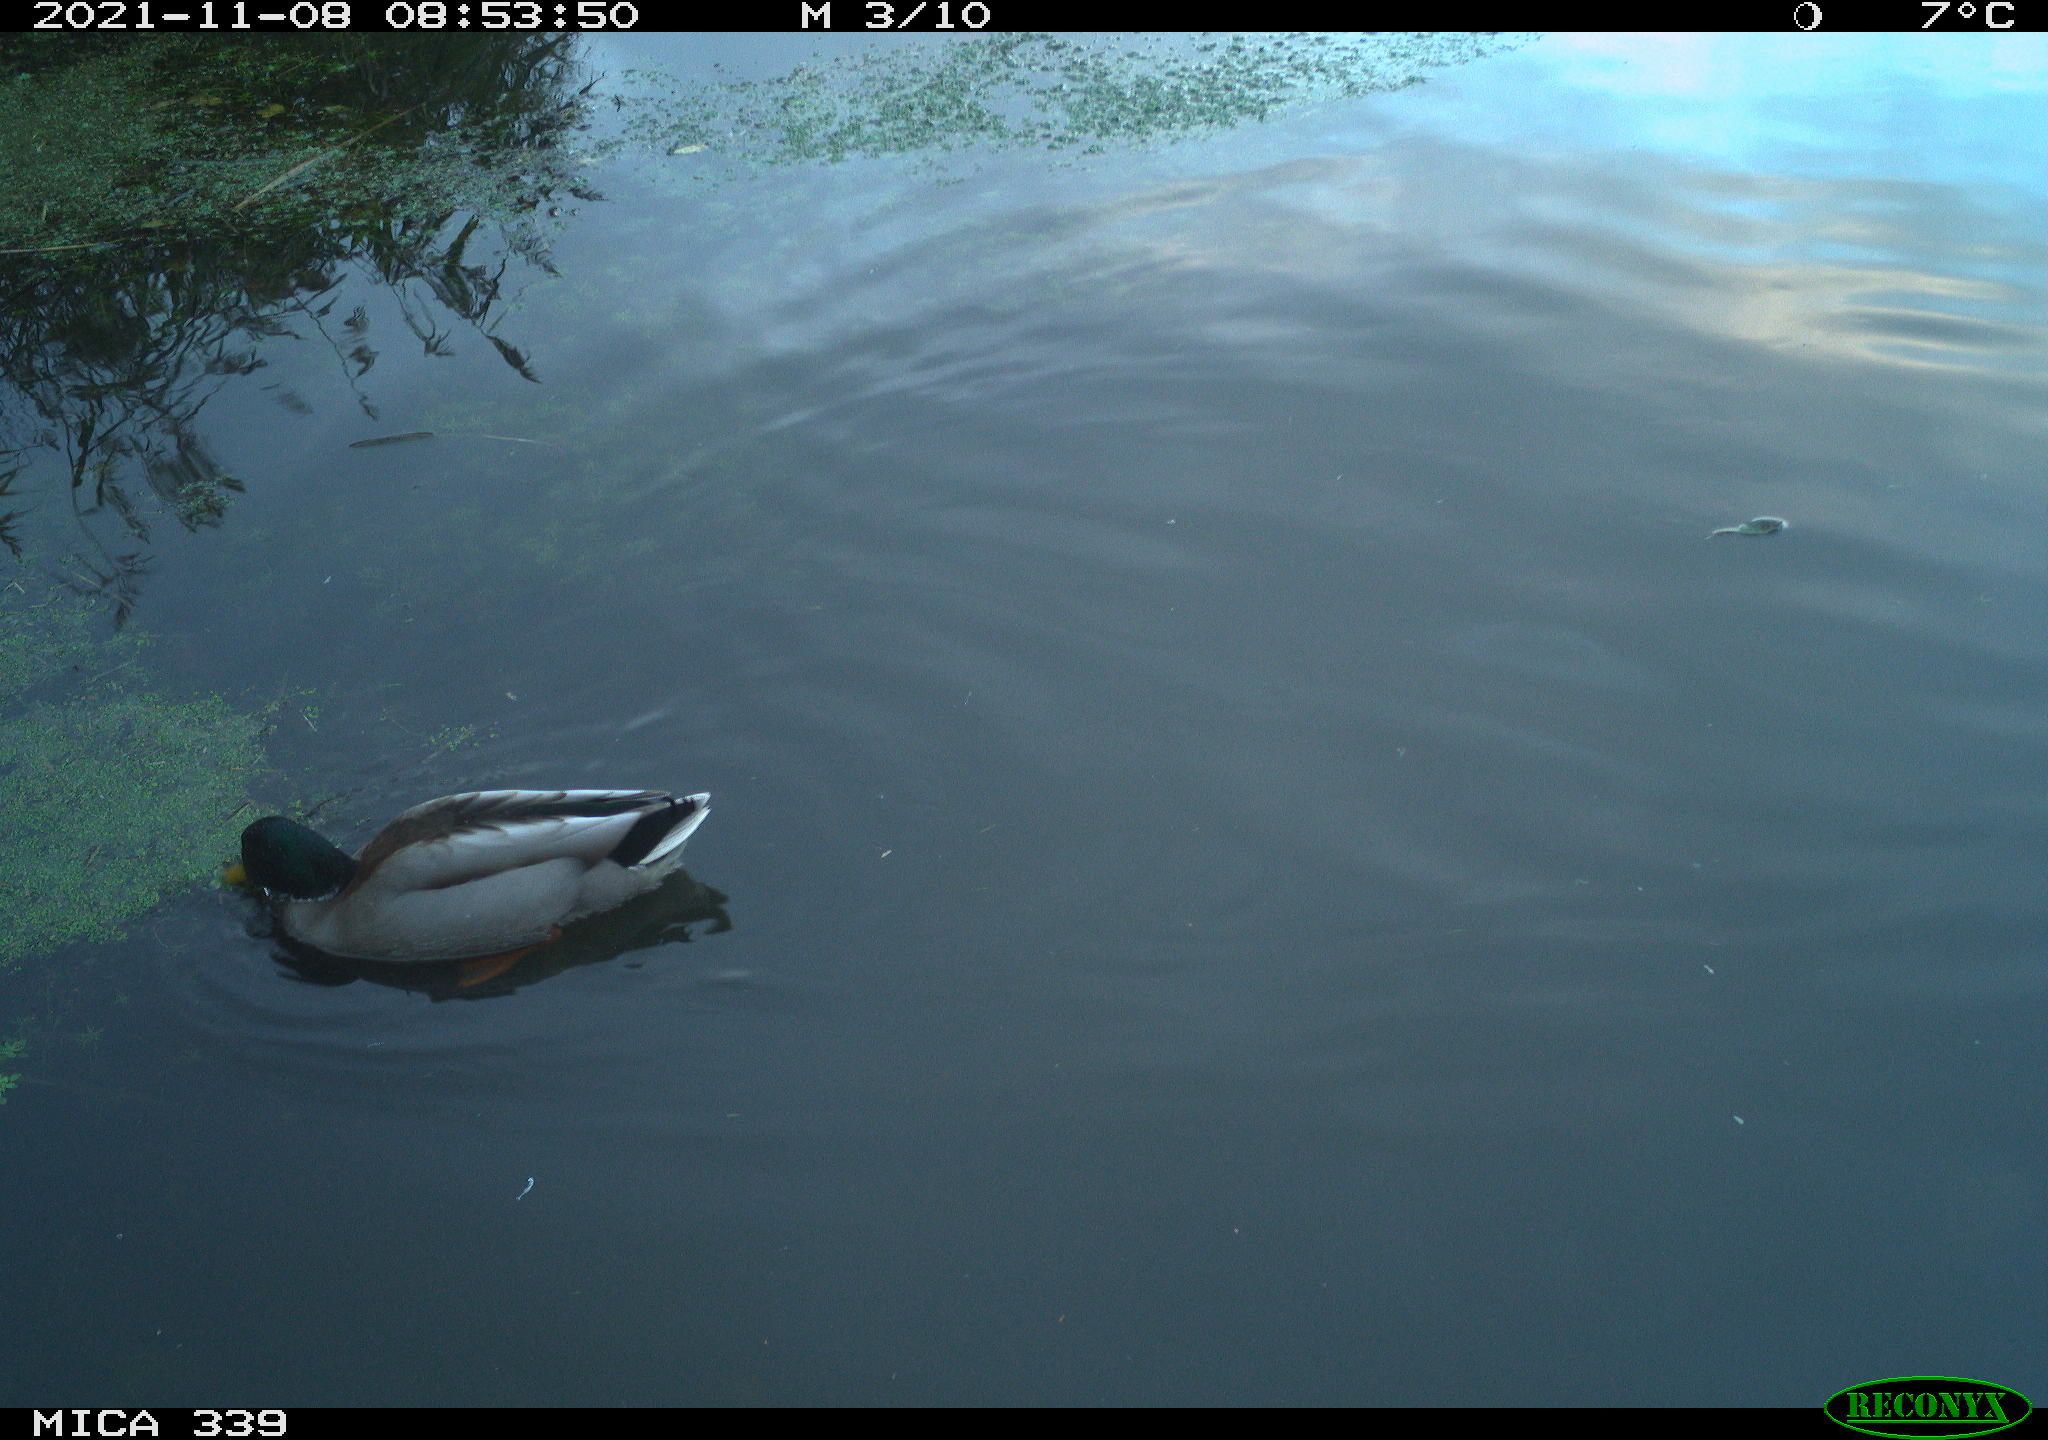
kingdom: Animalia
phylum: Chordata
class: Aves
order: Anseriformes
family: Anatidae
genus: Anas
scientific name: Anas platyrhynchos
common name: Mallard
